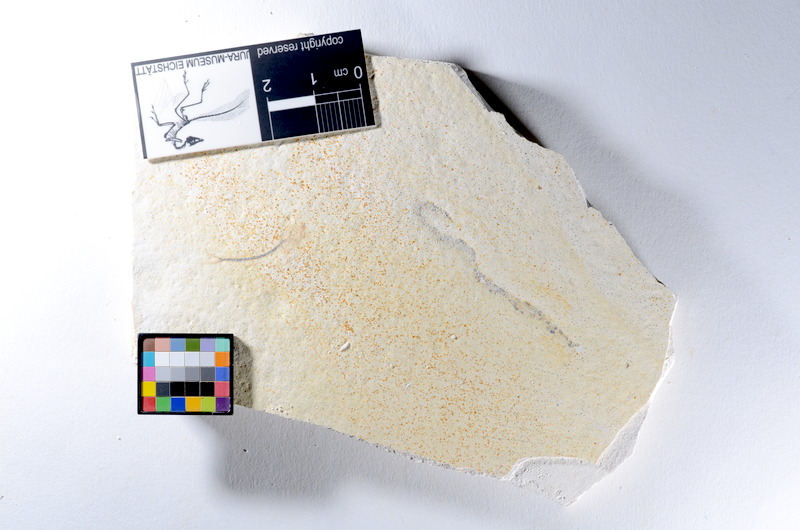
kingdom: Animalia
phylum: Chordata
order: Salmoniformes
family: Orthogonikleithridae
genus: Orthogonikleithrus
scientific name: Orthogonikleithrus hoelli
